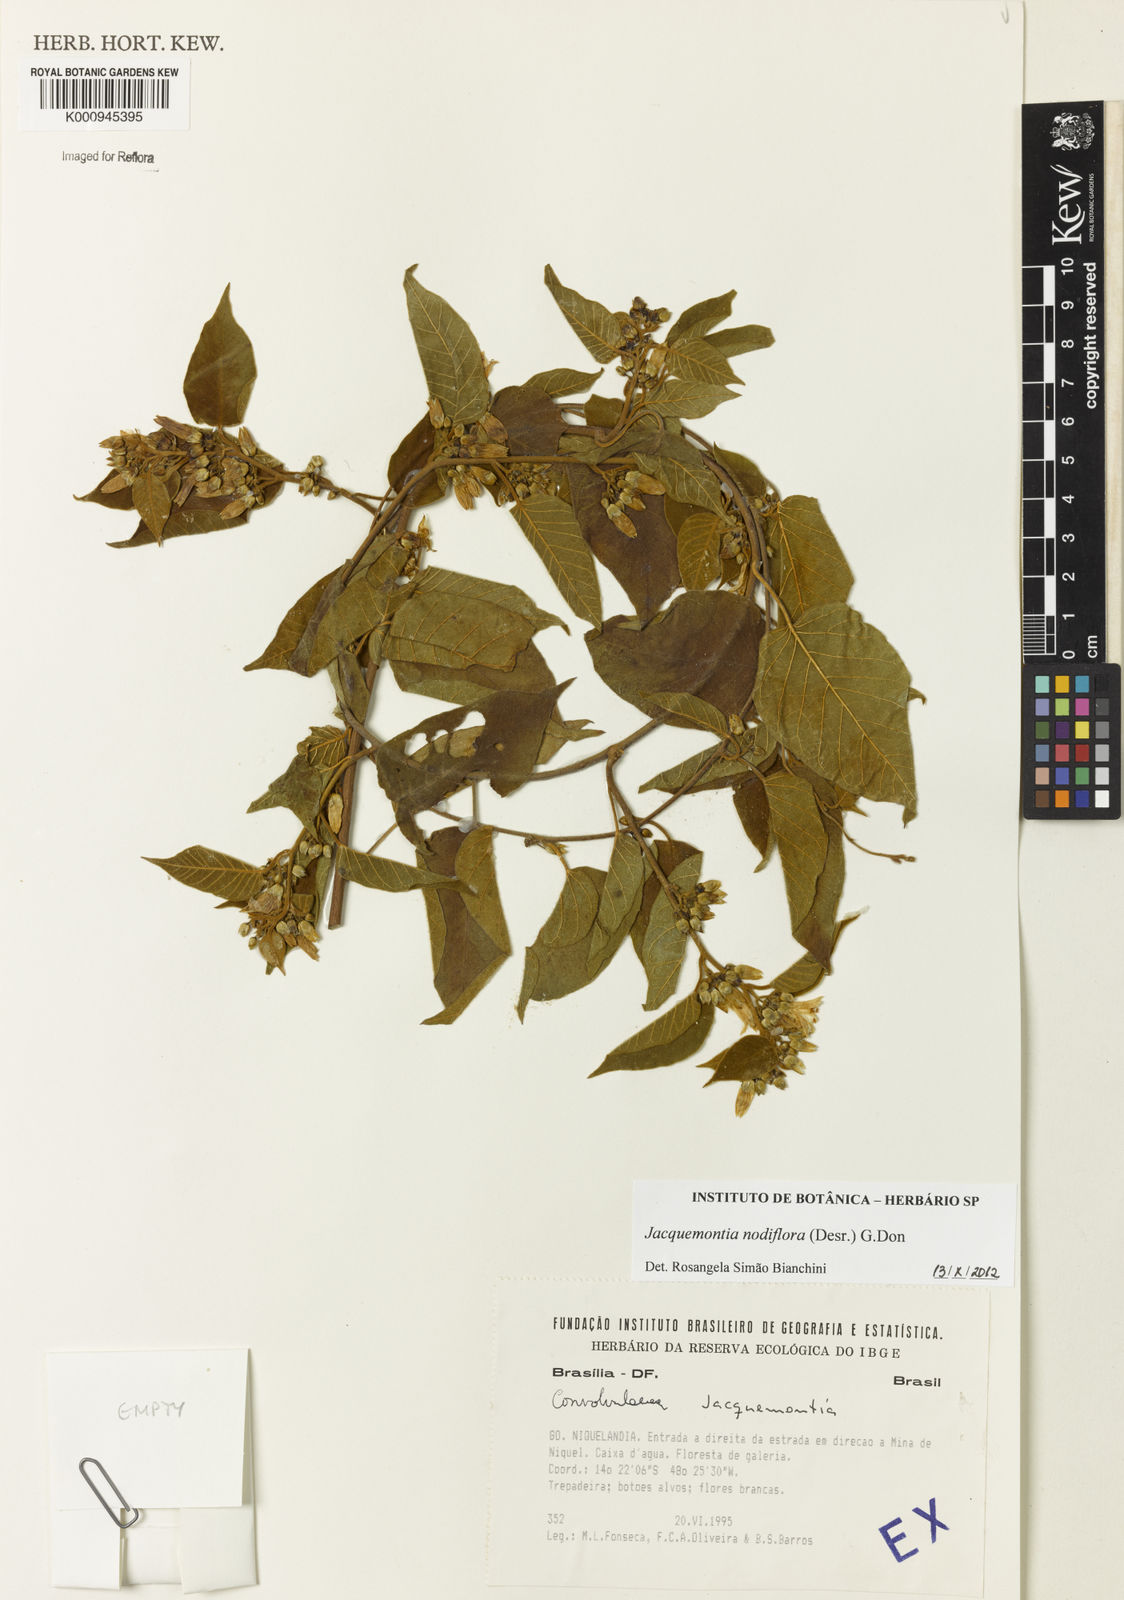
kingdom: Plantae
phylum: Tracheophyta
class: Magnoliopsida
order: Solanales
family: Convolvulaceae
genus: Jacquemontia
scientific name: Jacquemontia nodiflora
